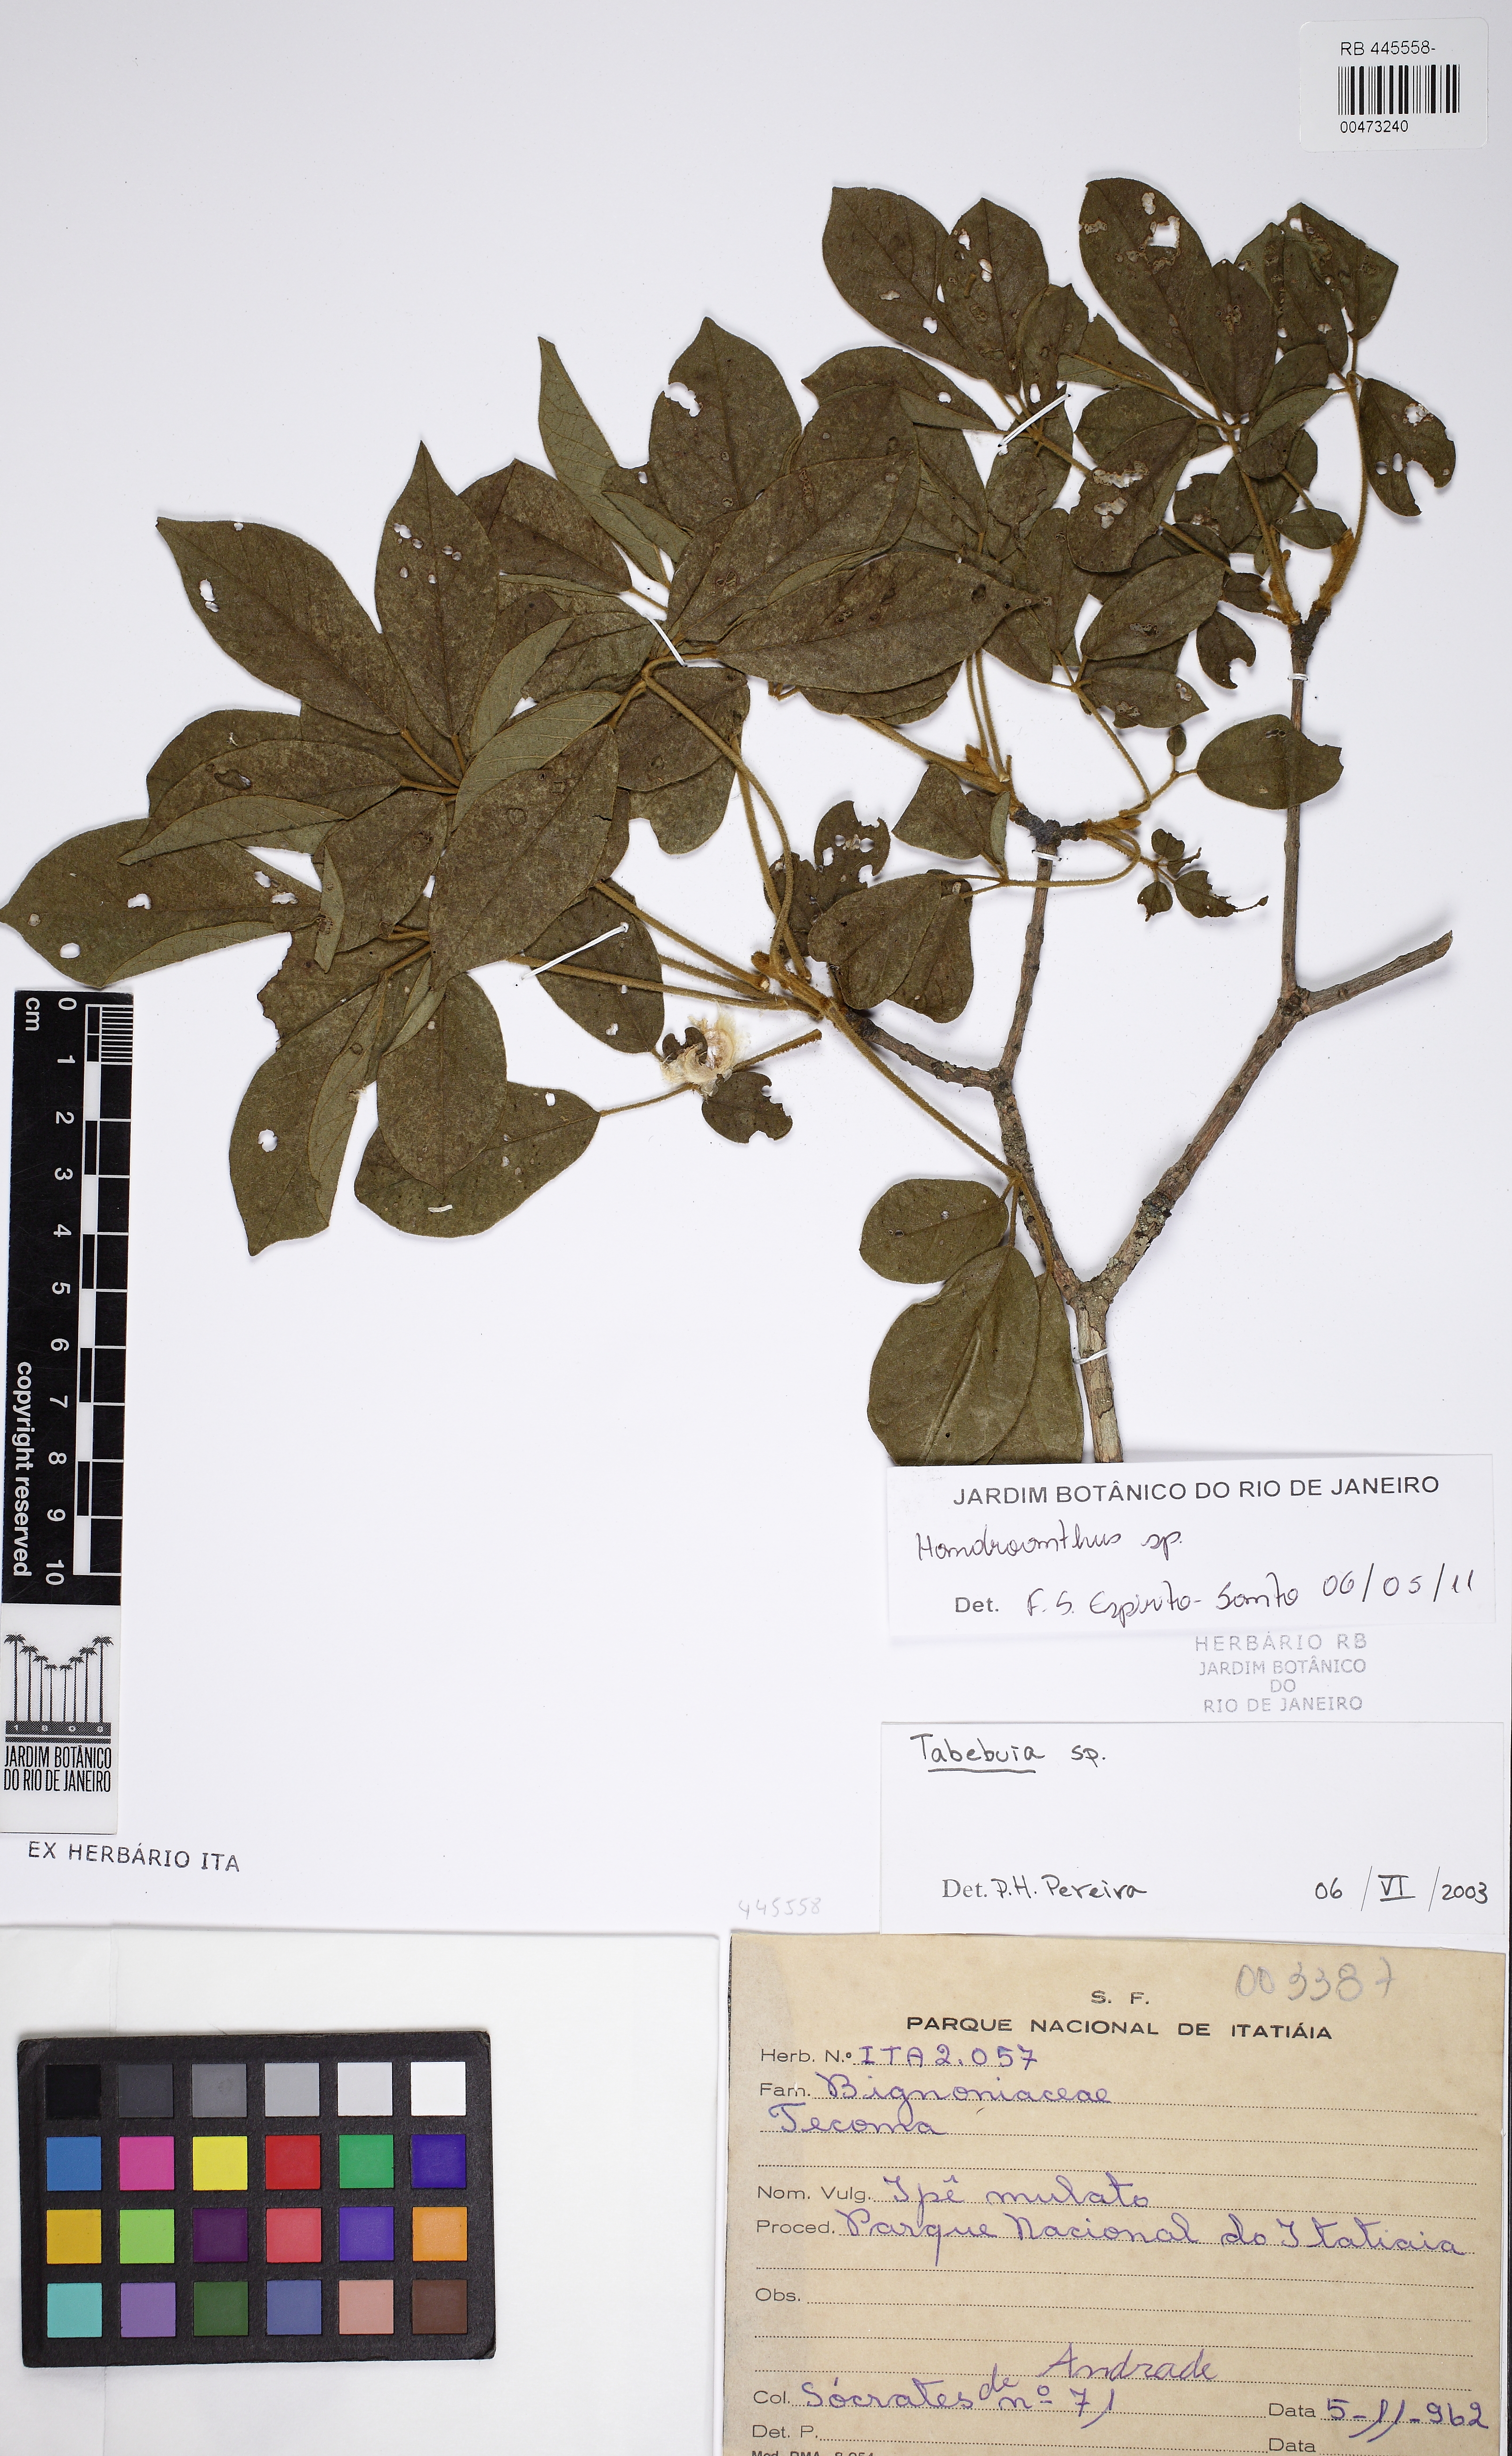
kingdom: Plantae
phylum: Tracheophyta
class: Magnoliopsida
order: Lamiales
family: Bignoniaceae
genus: Handroanthus
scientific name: Handroanthus
